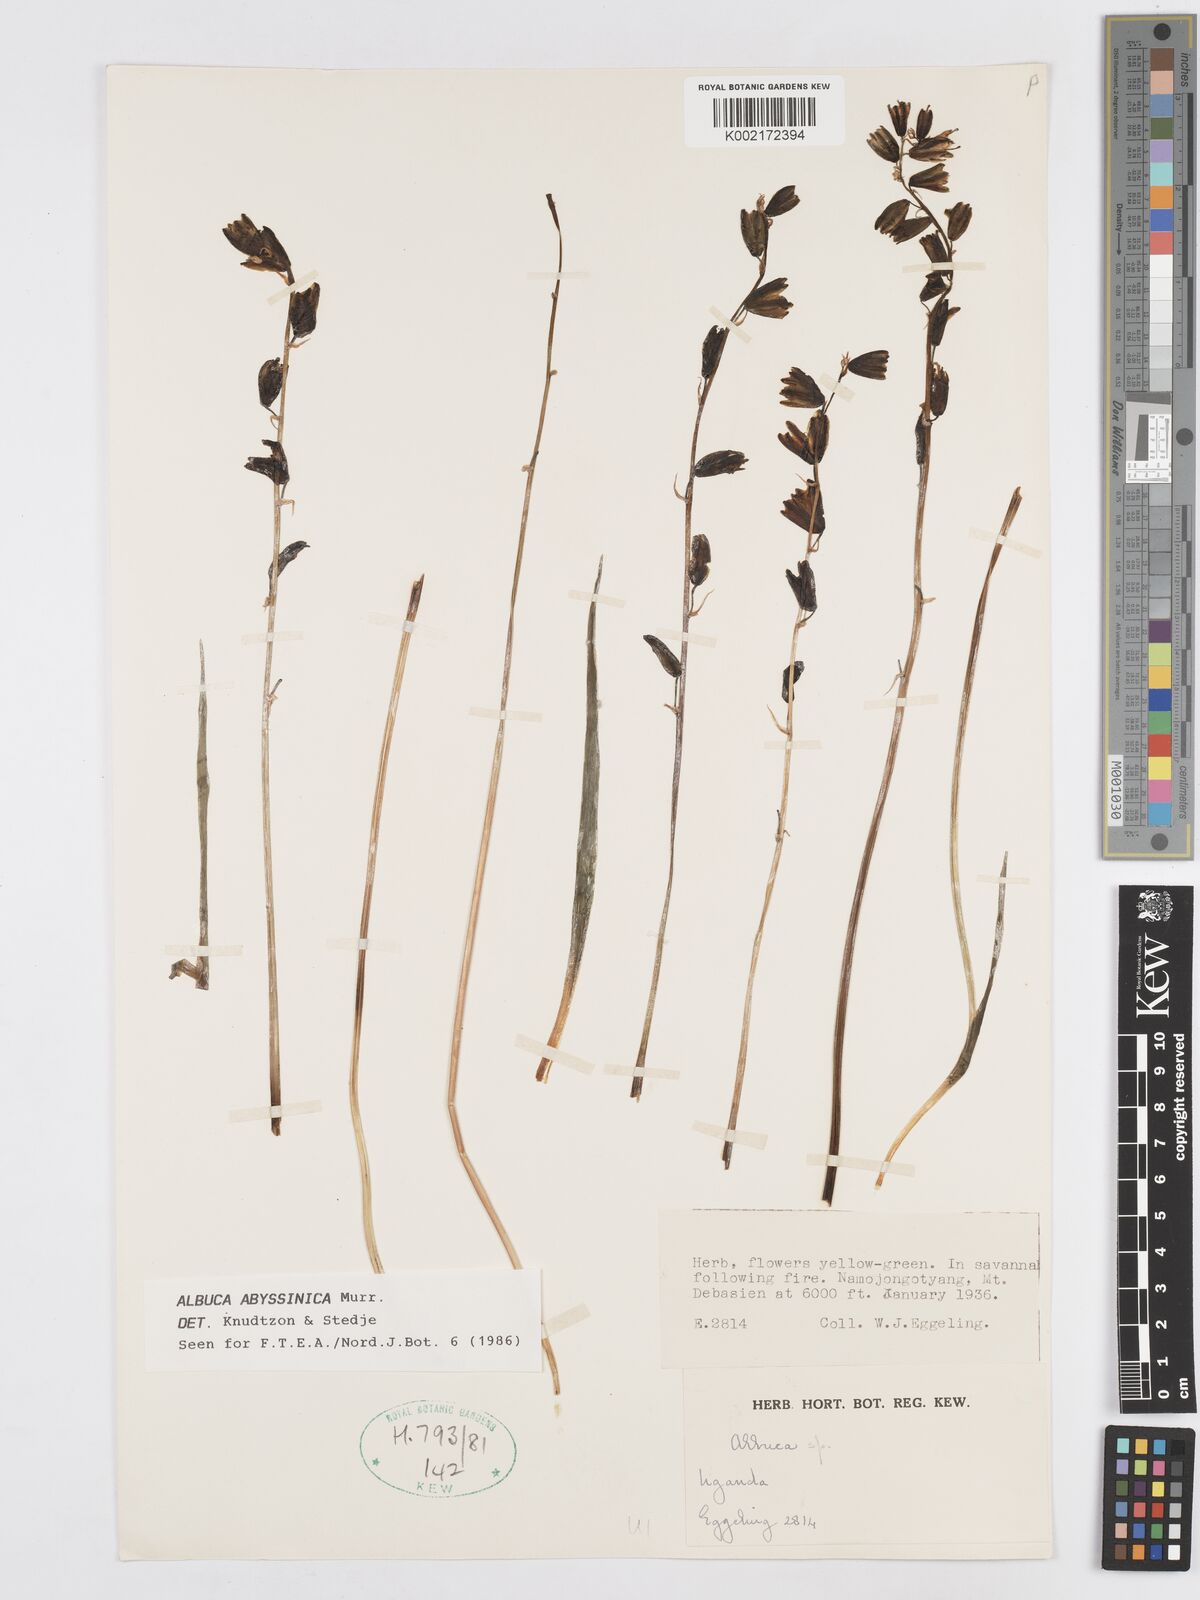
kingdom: Plantae
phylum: Tracheophyta
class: Liliopsida
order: Asparagales
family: Asparagaceae
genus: Albuca
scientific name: Albuca abyssinica
